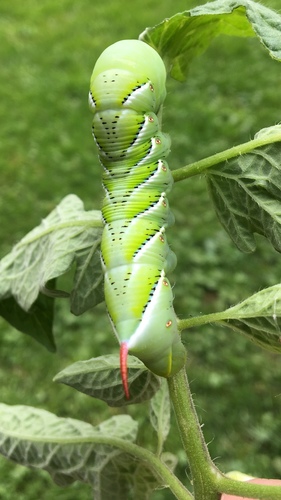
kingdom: Animalia
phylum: Arthropoda
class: Insecta
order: Lepidoptera
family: Sphingidae
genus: Manduca
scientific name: Manduca sexta
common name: Carolina sphinx
